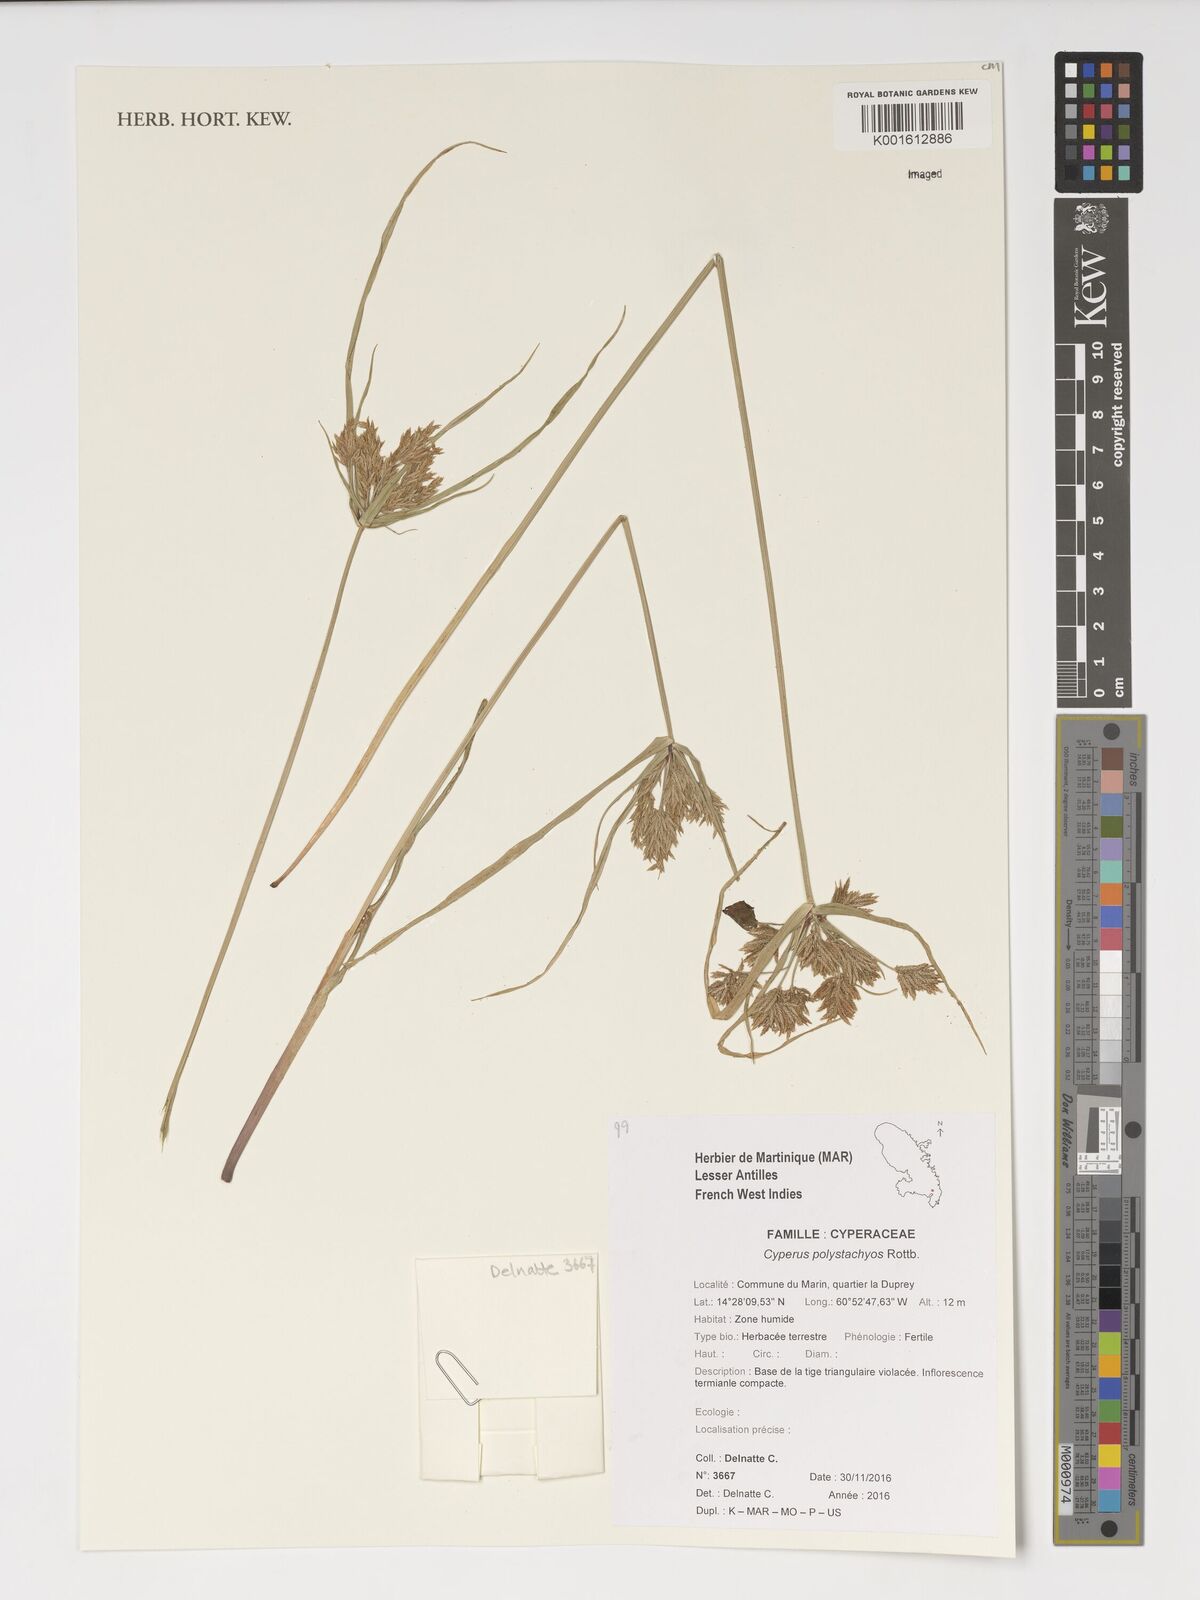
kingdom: Plantae
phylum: Tracheophyta
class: Liliopsida
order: Poales
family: Cyperaceae
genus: Cyperus
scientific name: Cyperus polystachyos
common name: Bunchy flat sedge
